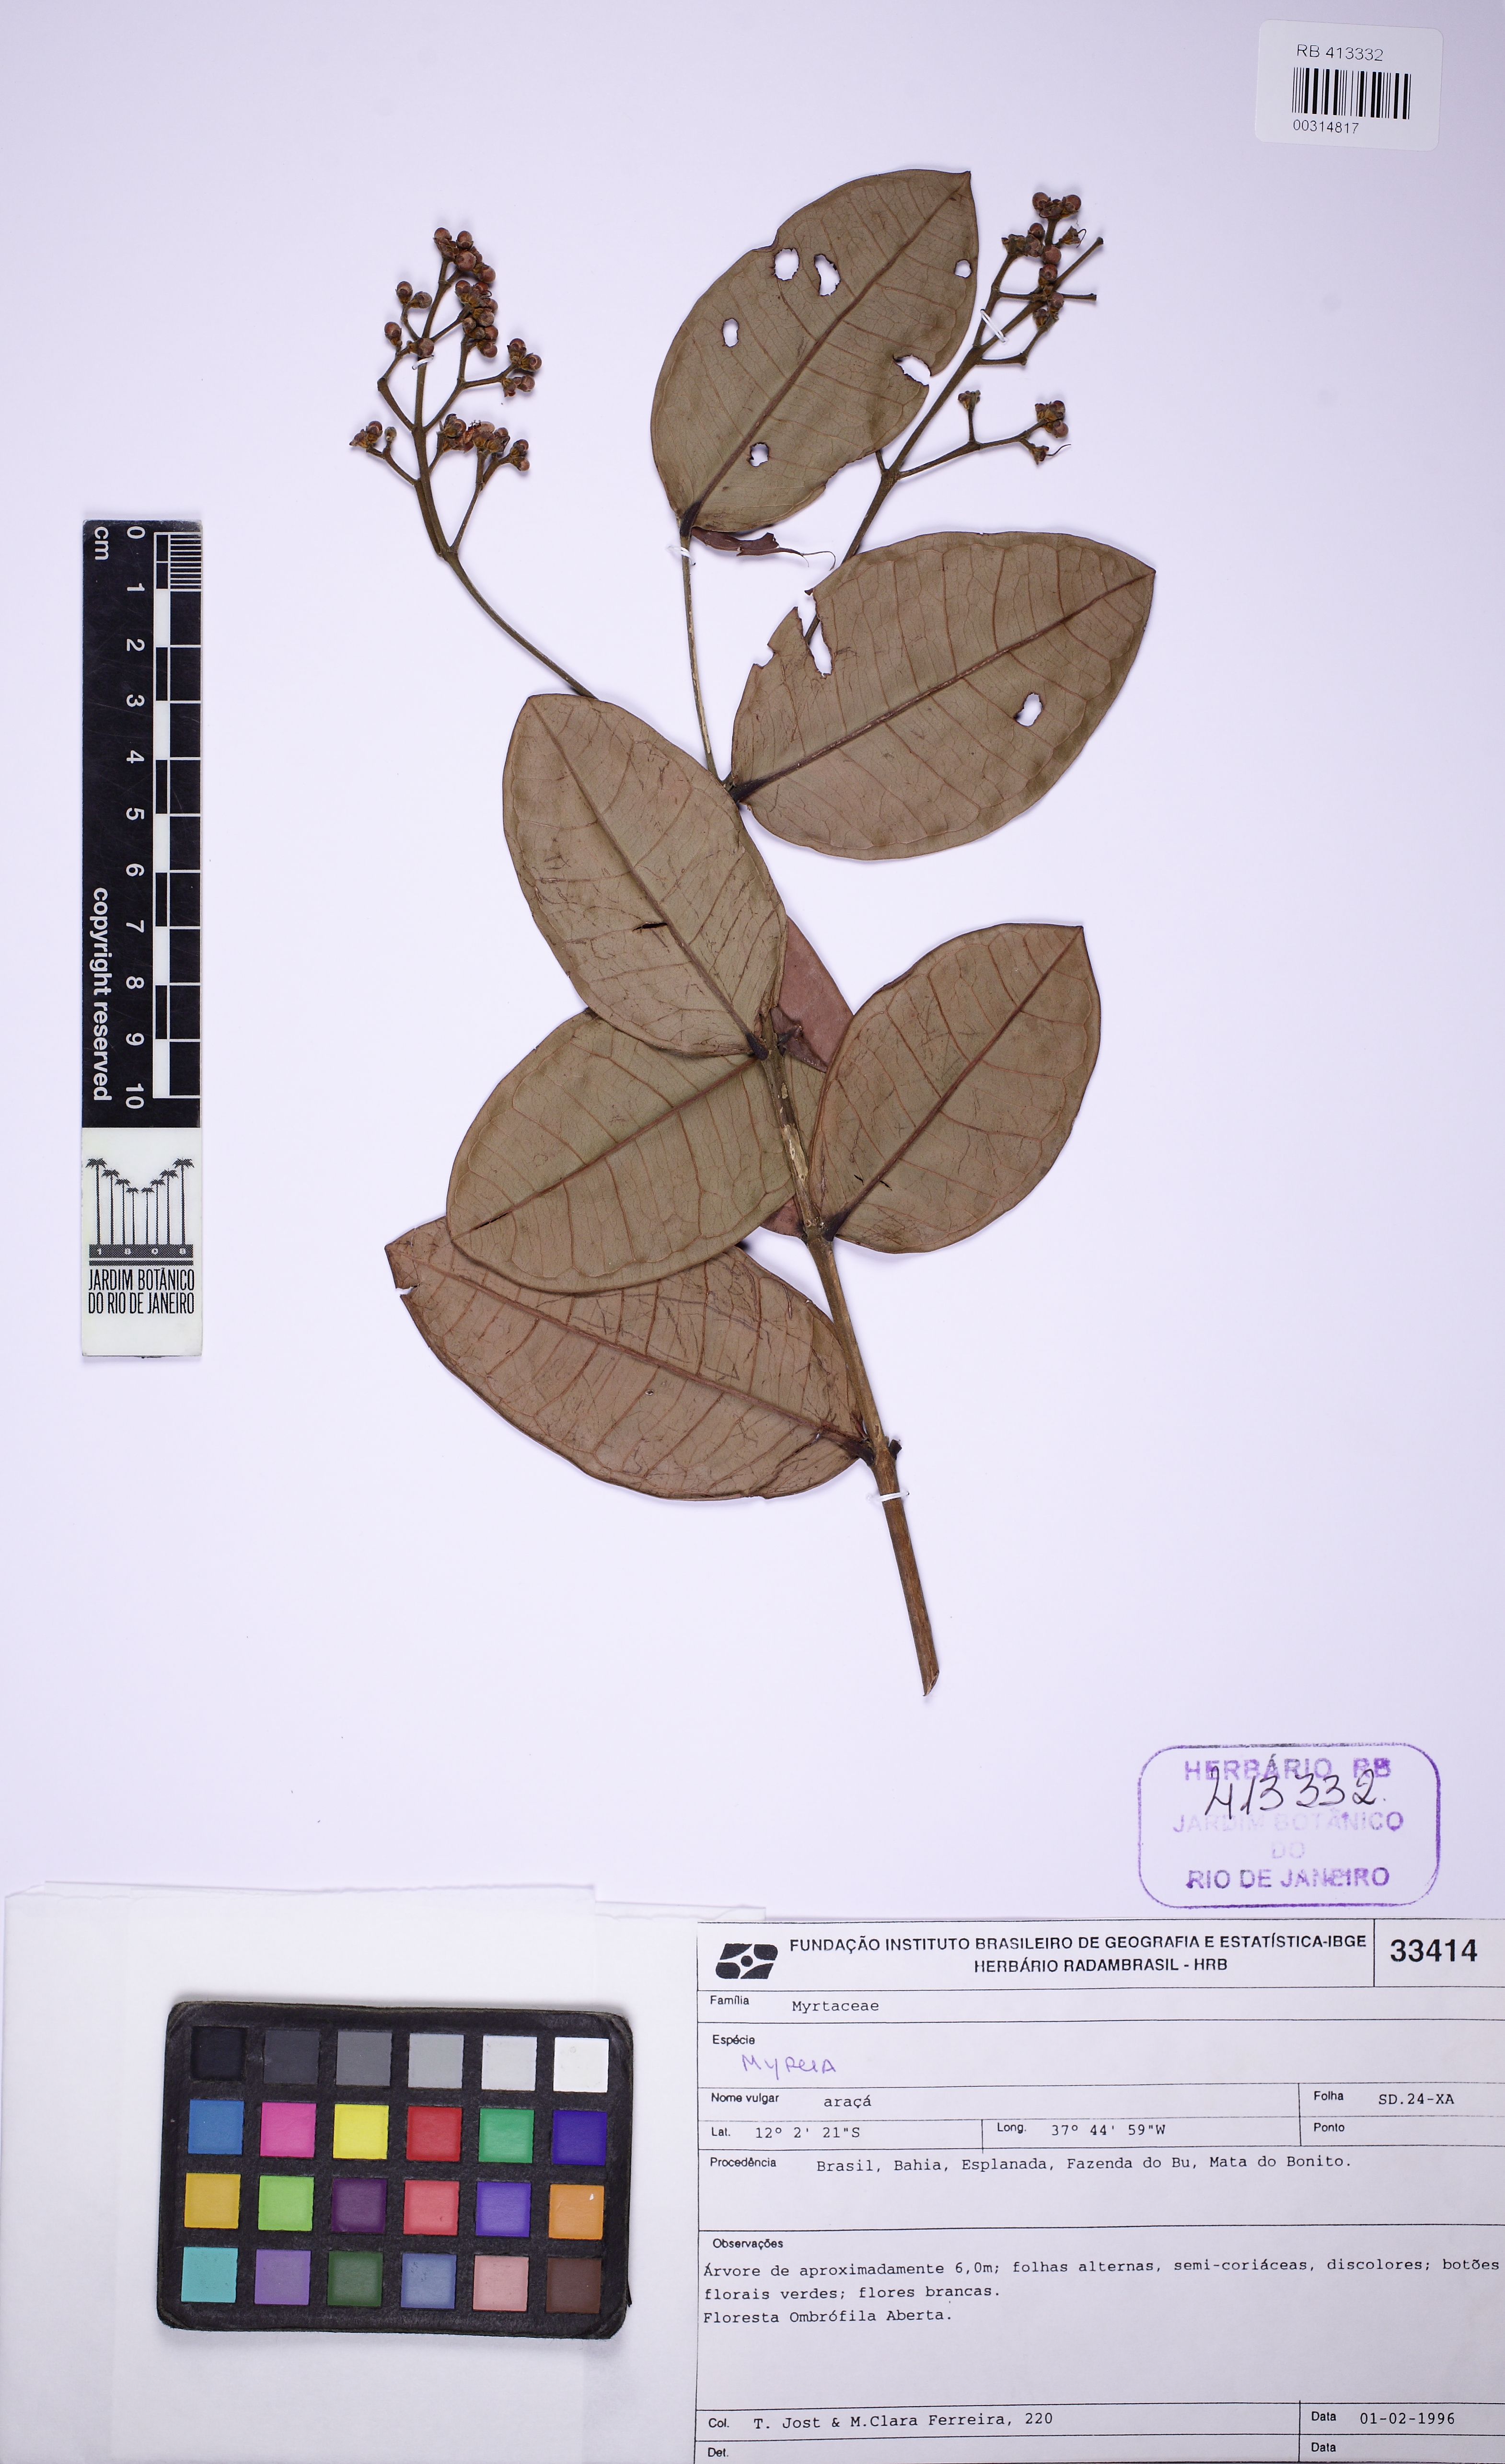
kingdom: Plantae
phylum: Tracheophyta
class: Magnoliopsida
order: Myrtales
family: Myrtaceae
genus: Myrcia
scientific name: Myrcia rosangelae
